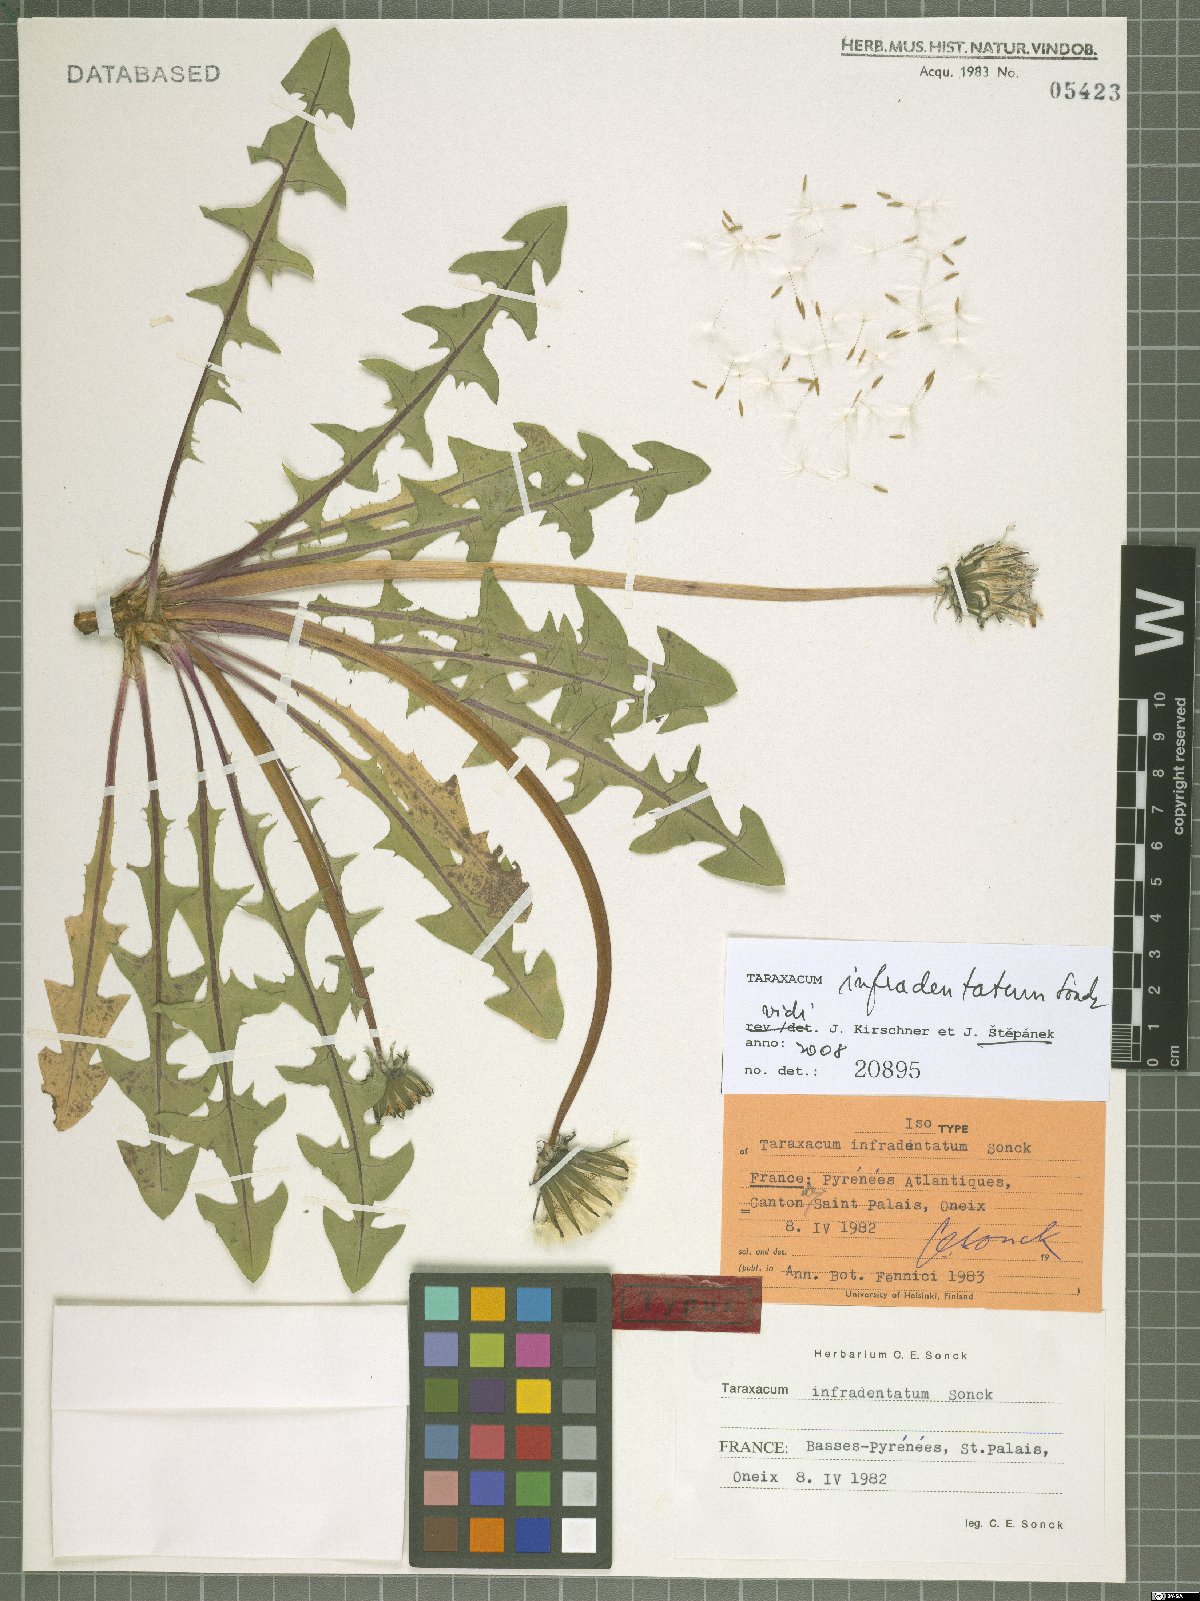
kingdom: Plantae
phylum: Tracheophyta
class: Magnoliopsida
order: Asterales
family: Asteraceae
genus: Taraxacum
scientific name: Taraxacum infradentatum
